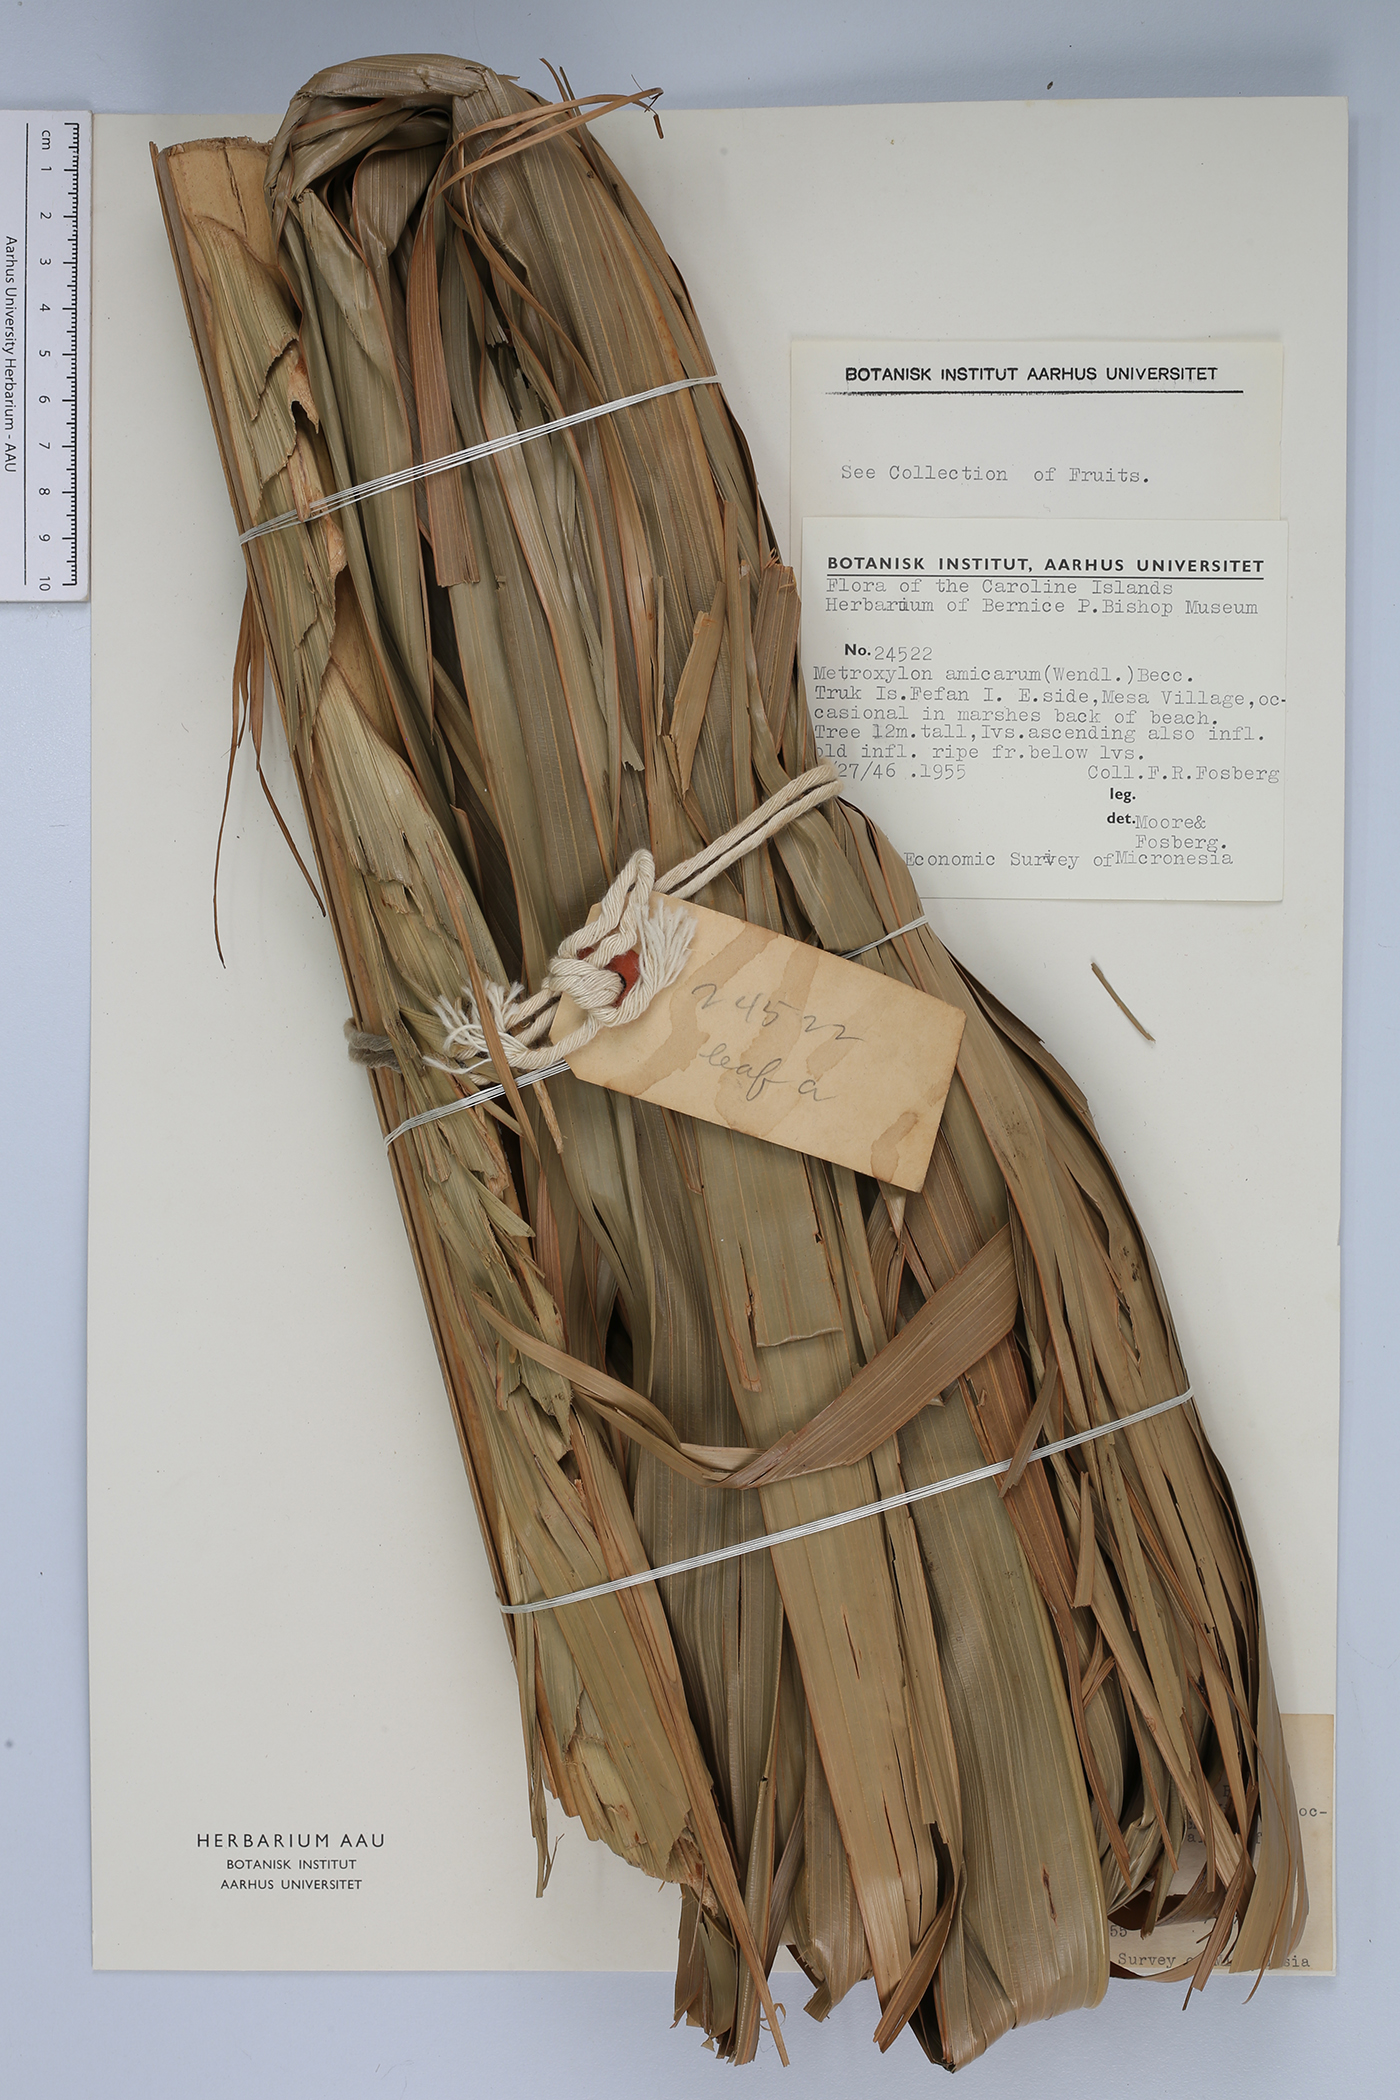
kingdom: Plantae
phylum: Tracheophyta
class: Liliopsida
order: Arecales
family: Arecaceae
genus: Metroxylon
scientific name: Metroxylon amicarum
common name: Caroline ivory nut
